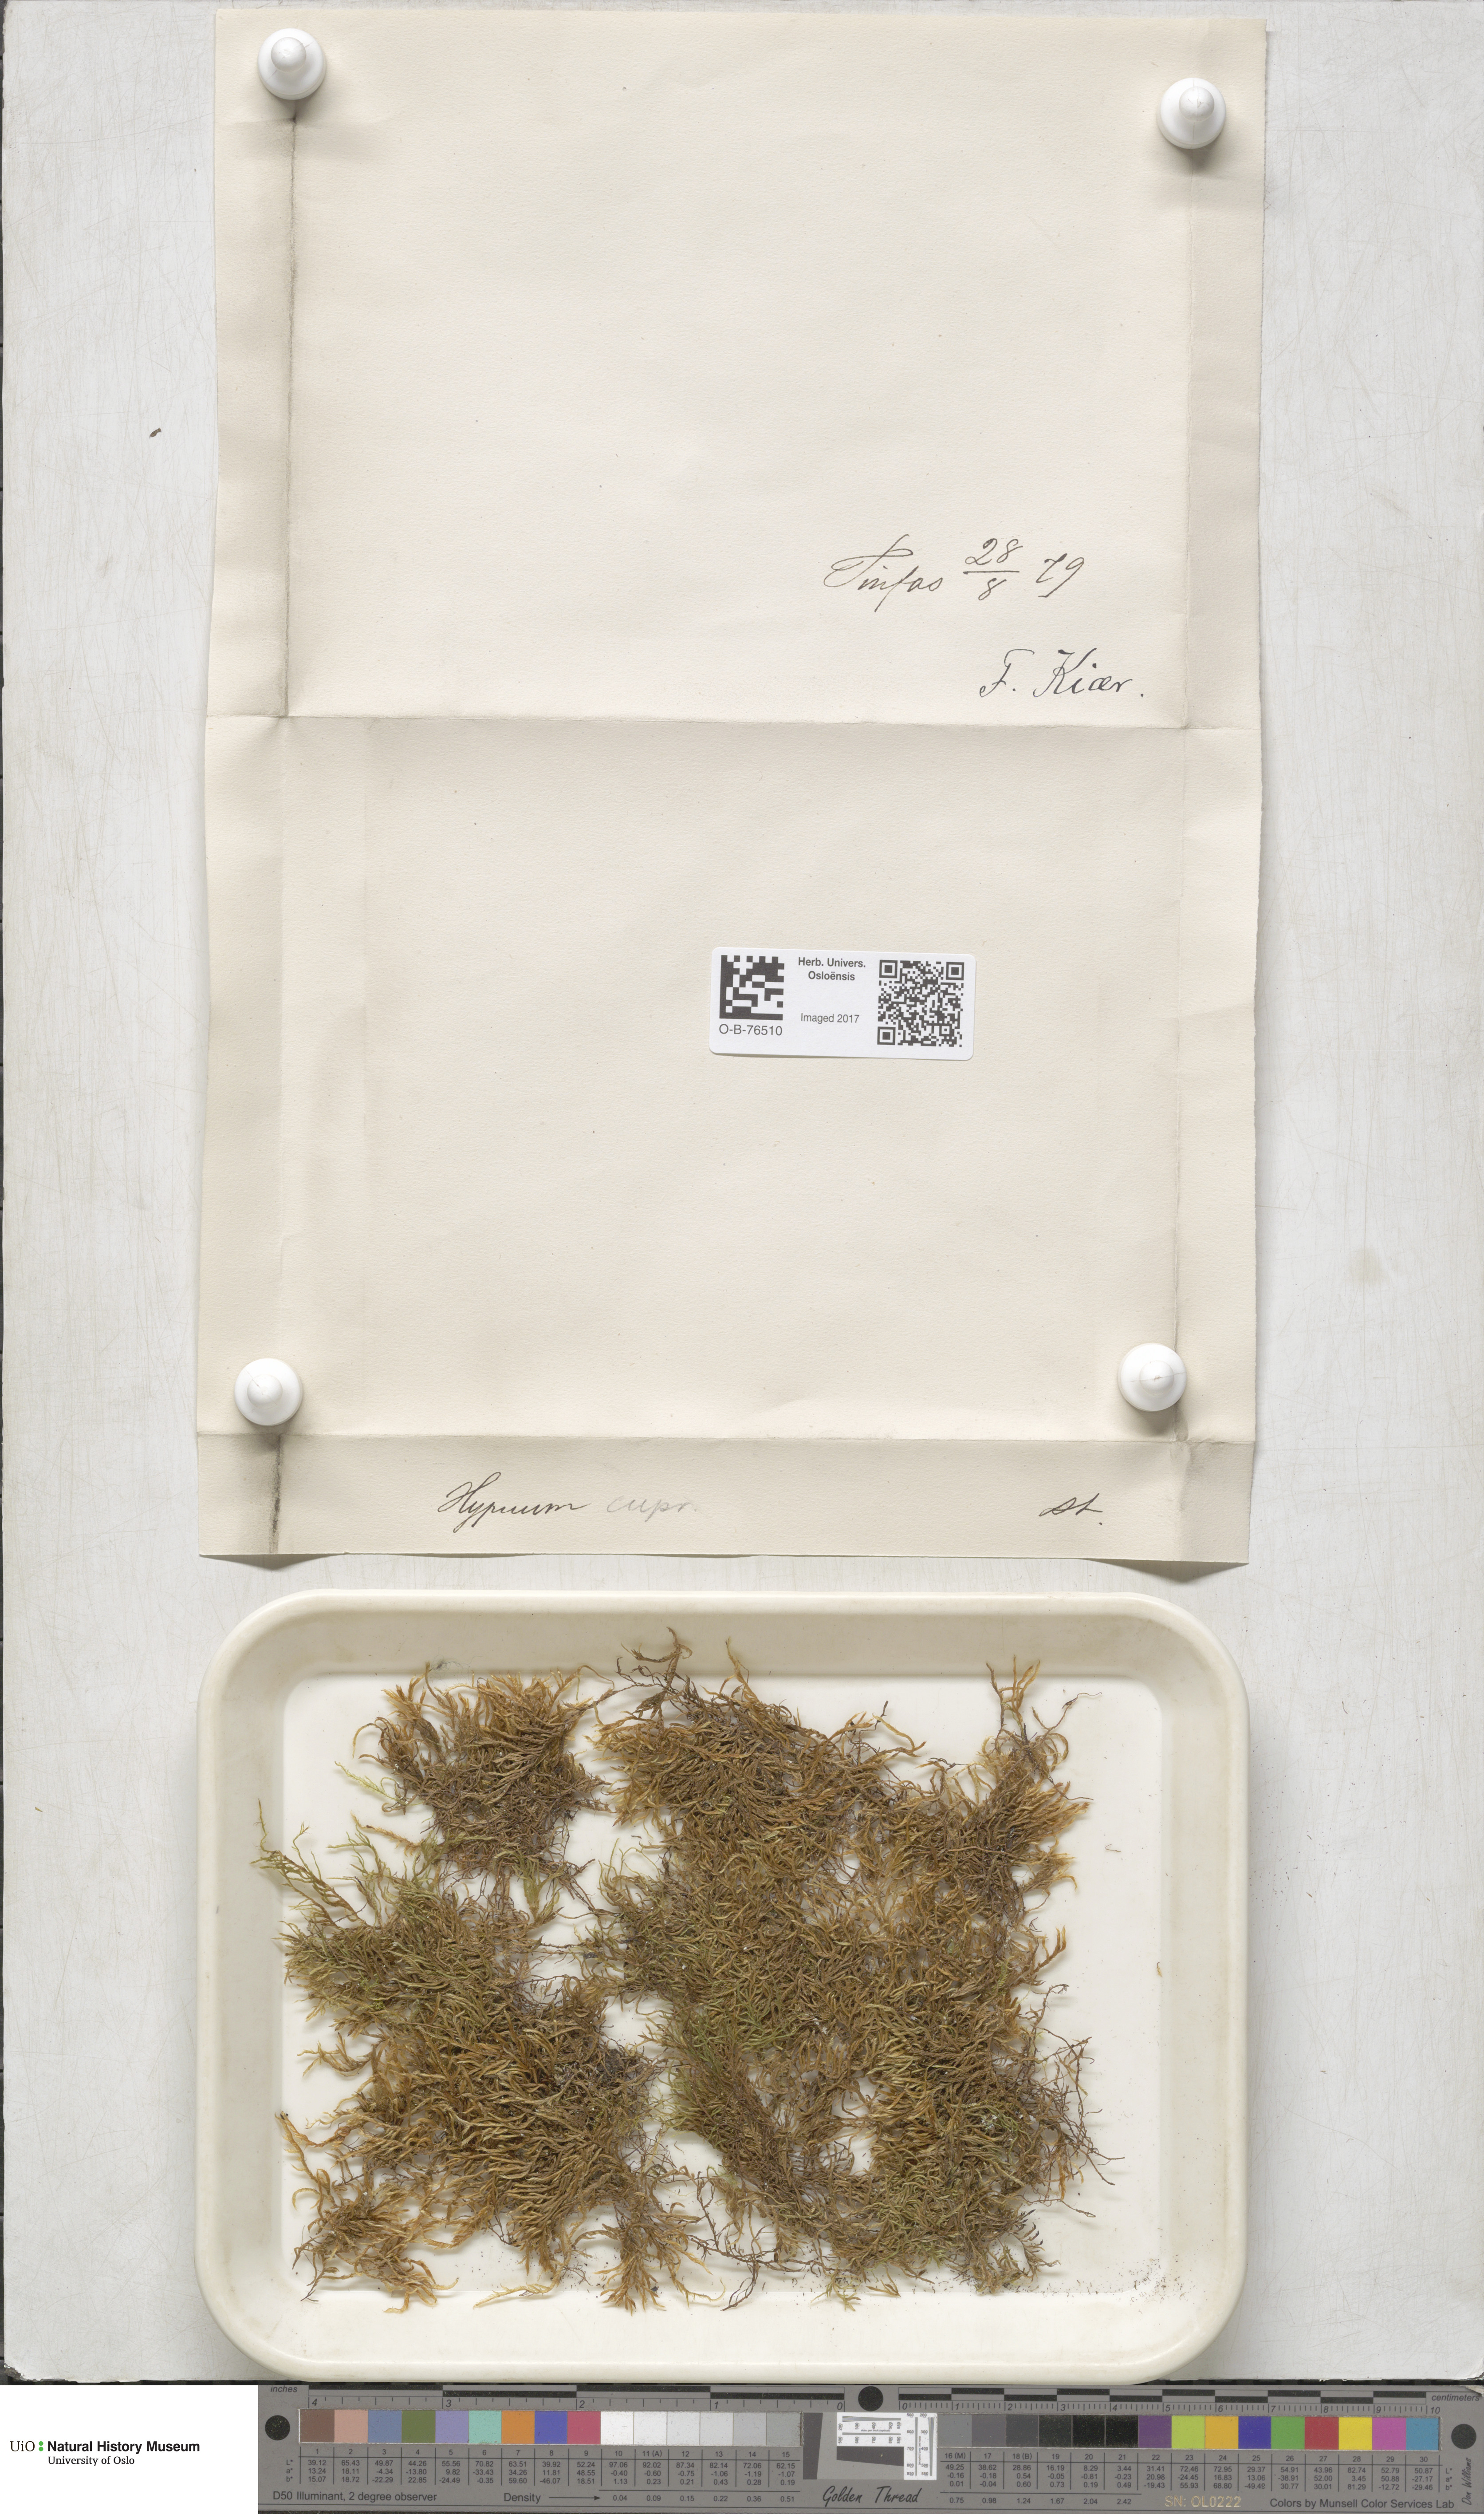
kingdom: Plantae
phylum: Bryophyta
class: Bryopsida
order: Hypnales
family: Hypnaceae
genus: Hypnum
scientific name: Hypnum cupressiforme
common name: Cypress-leaved plait-moss
